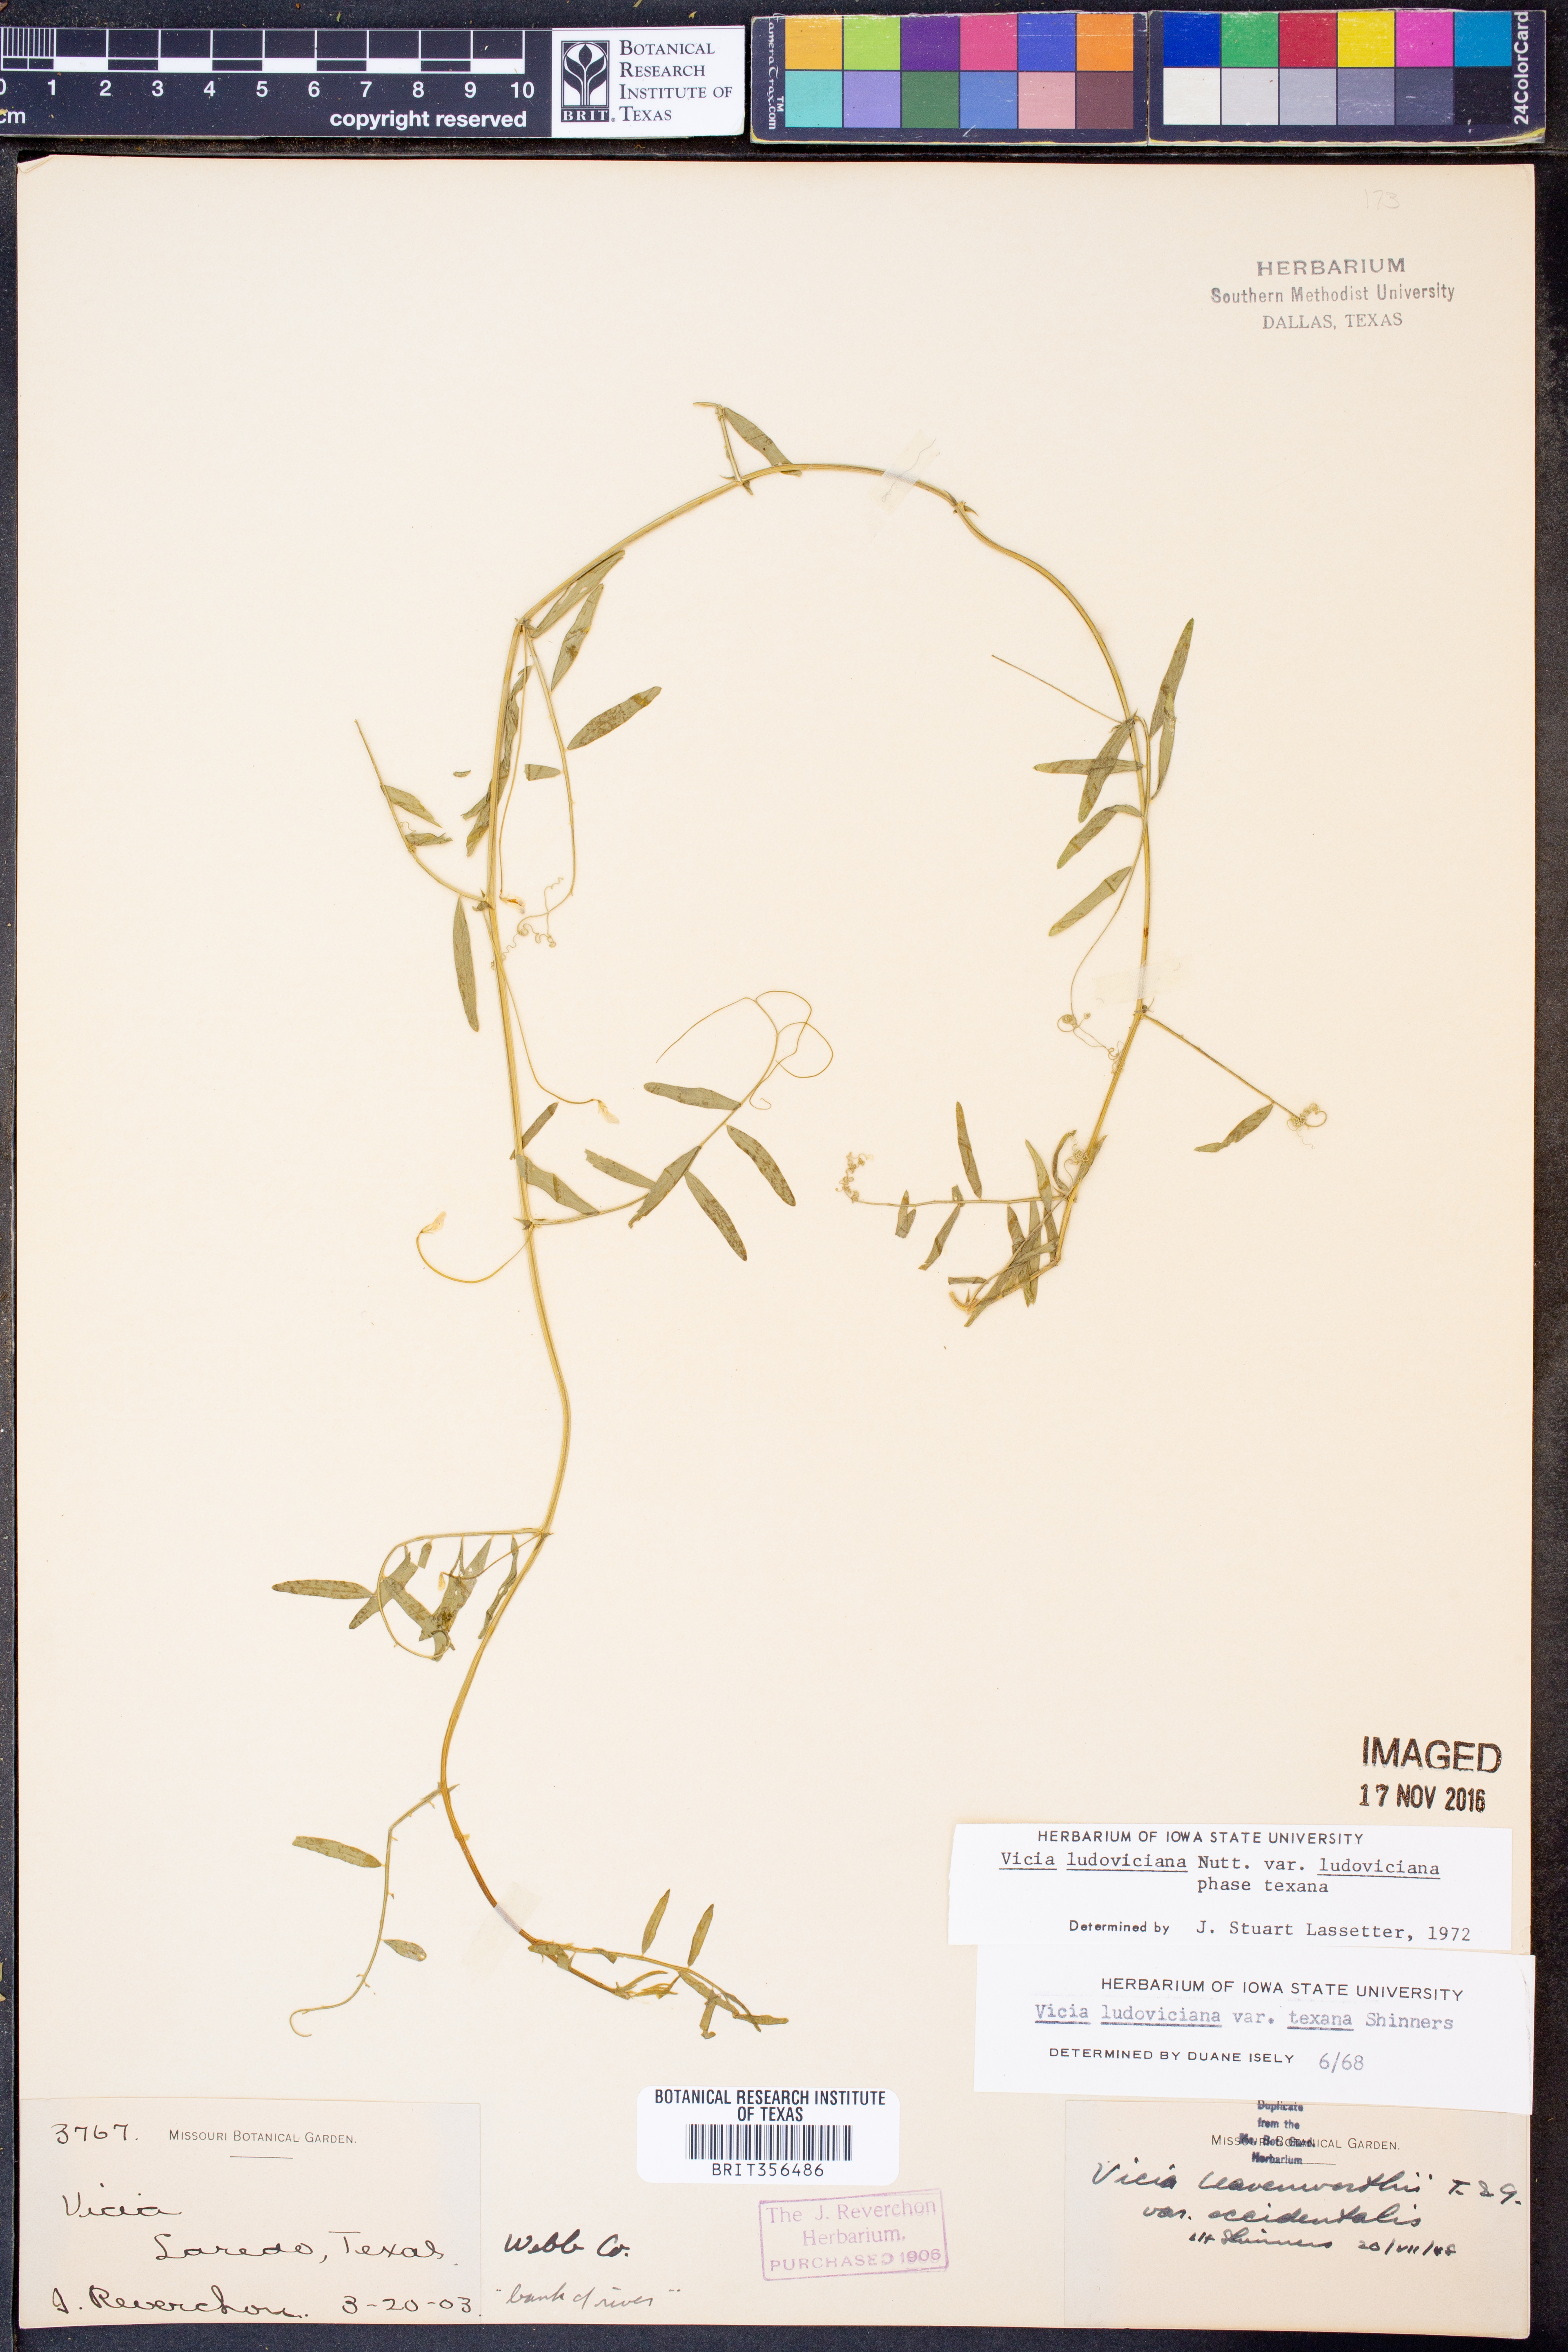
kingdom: Plantae
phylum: Tracheophyta
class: Magnoliopsida
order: Fabales
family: Fabaceae
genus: Vicia
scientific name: Vicia ludoviciana
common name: Louisiana vetch
